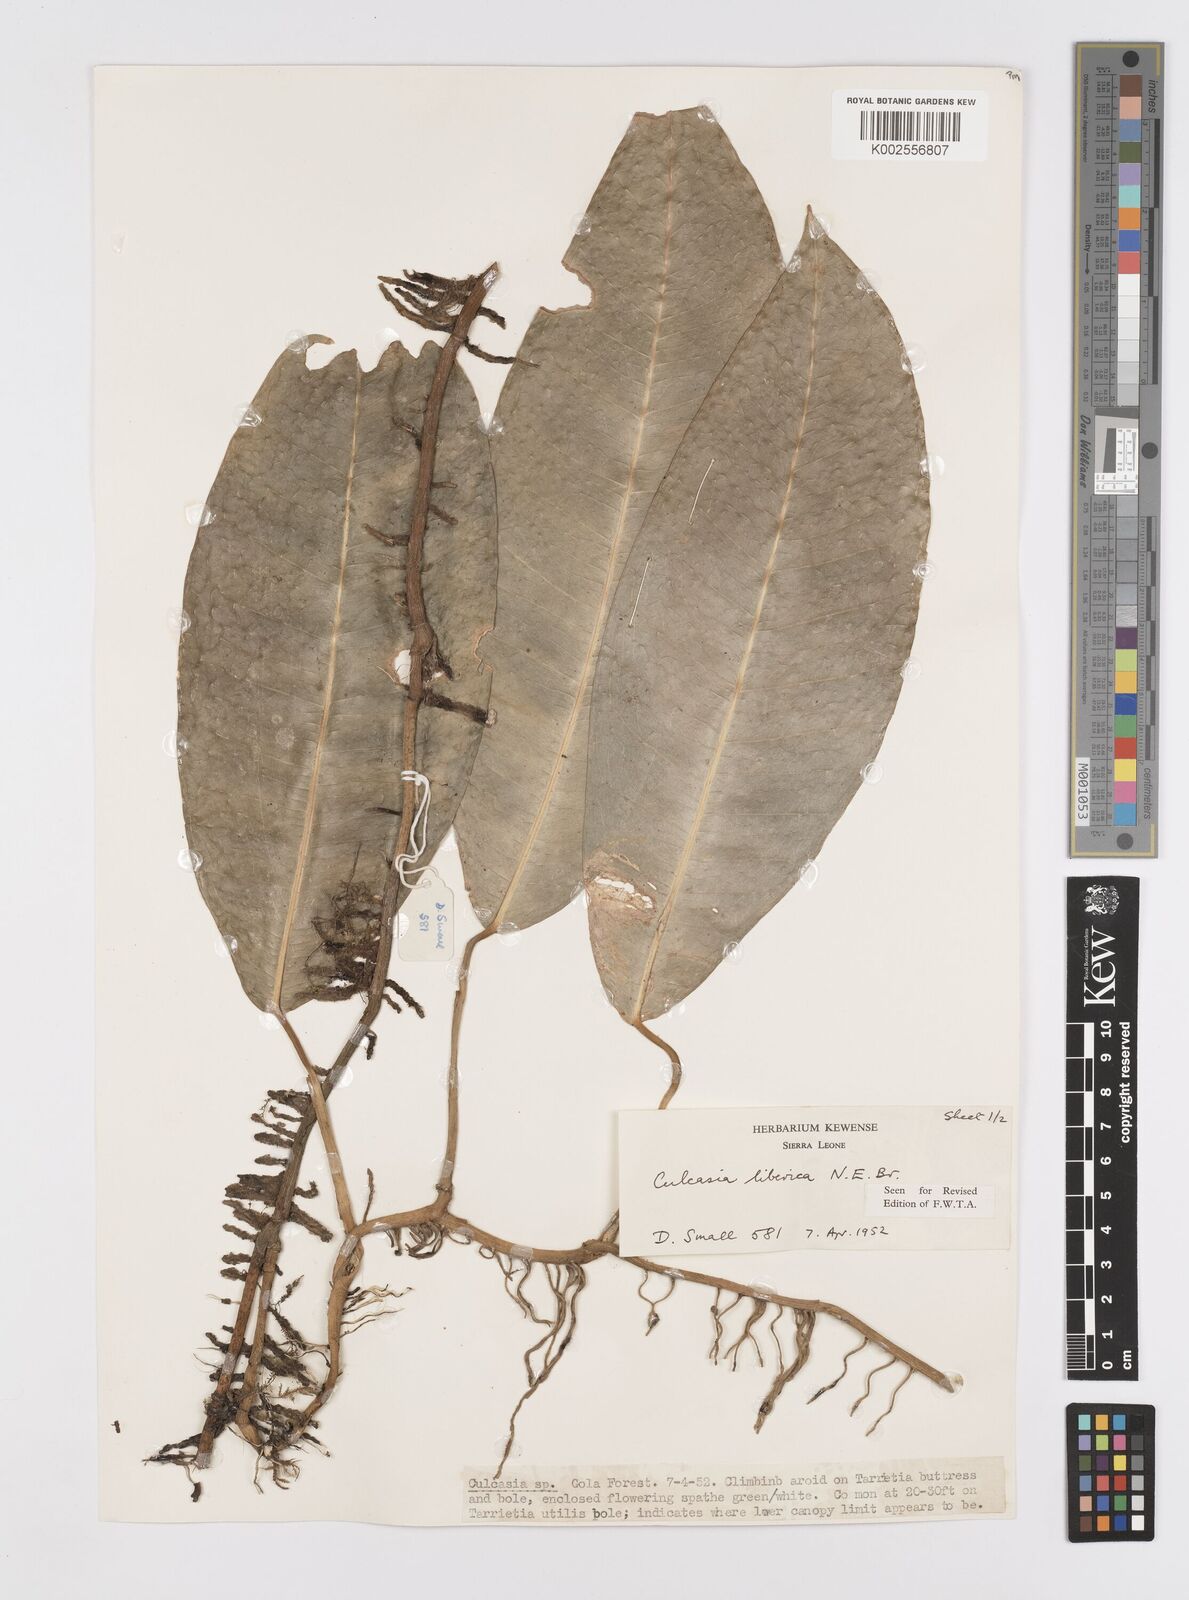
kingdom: Plantae
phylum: Tracheophyta
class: Liliopsida
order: Alismatales
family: Araceae
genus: Culcasia
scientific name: Culcasia liberica
